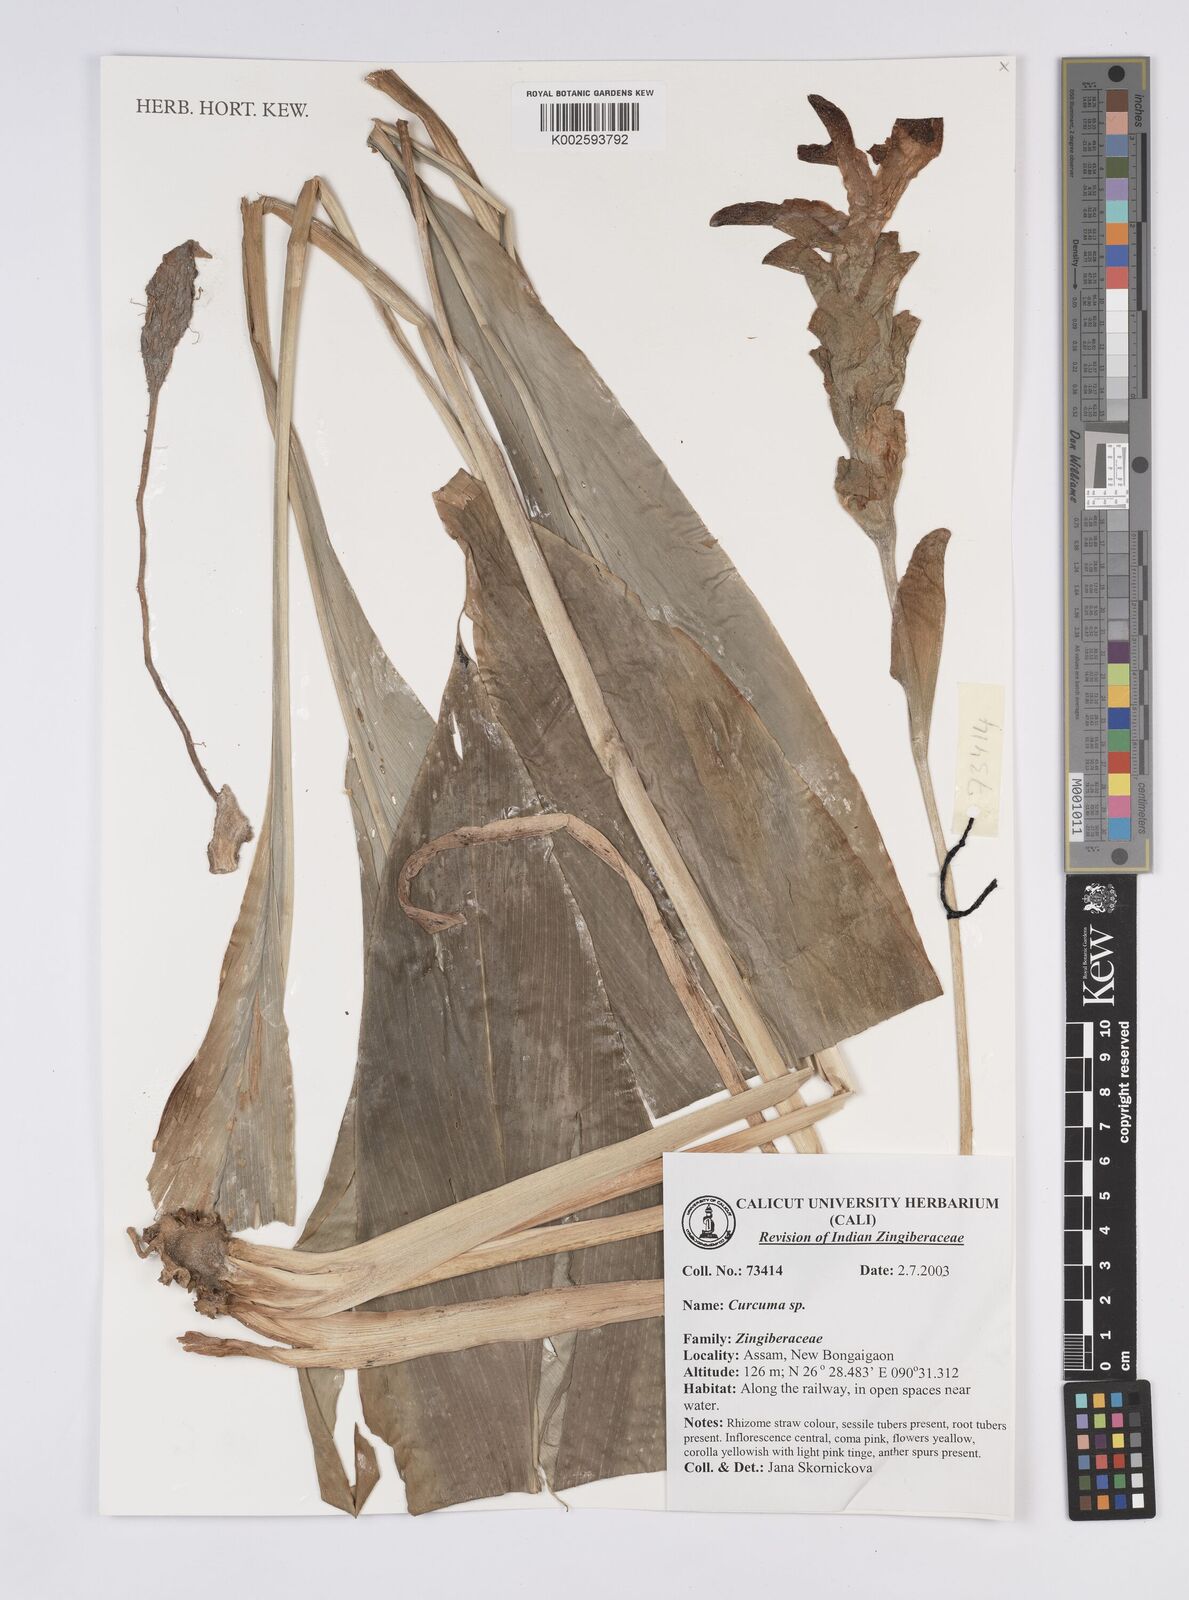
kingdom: Plantae
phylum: Tracheophyta
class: Liliopsida
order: Zingiberales
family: Zingiberaceae
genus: Curcuma
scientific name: Curcuma
